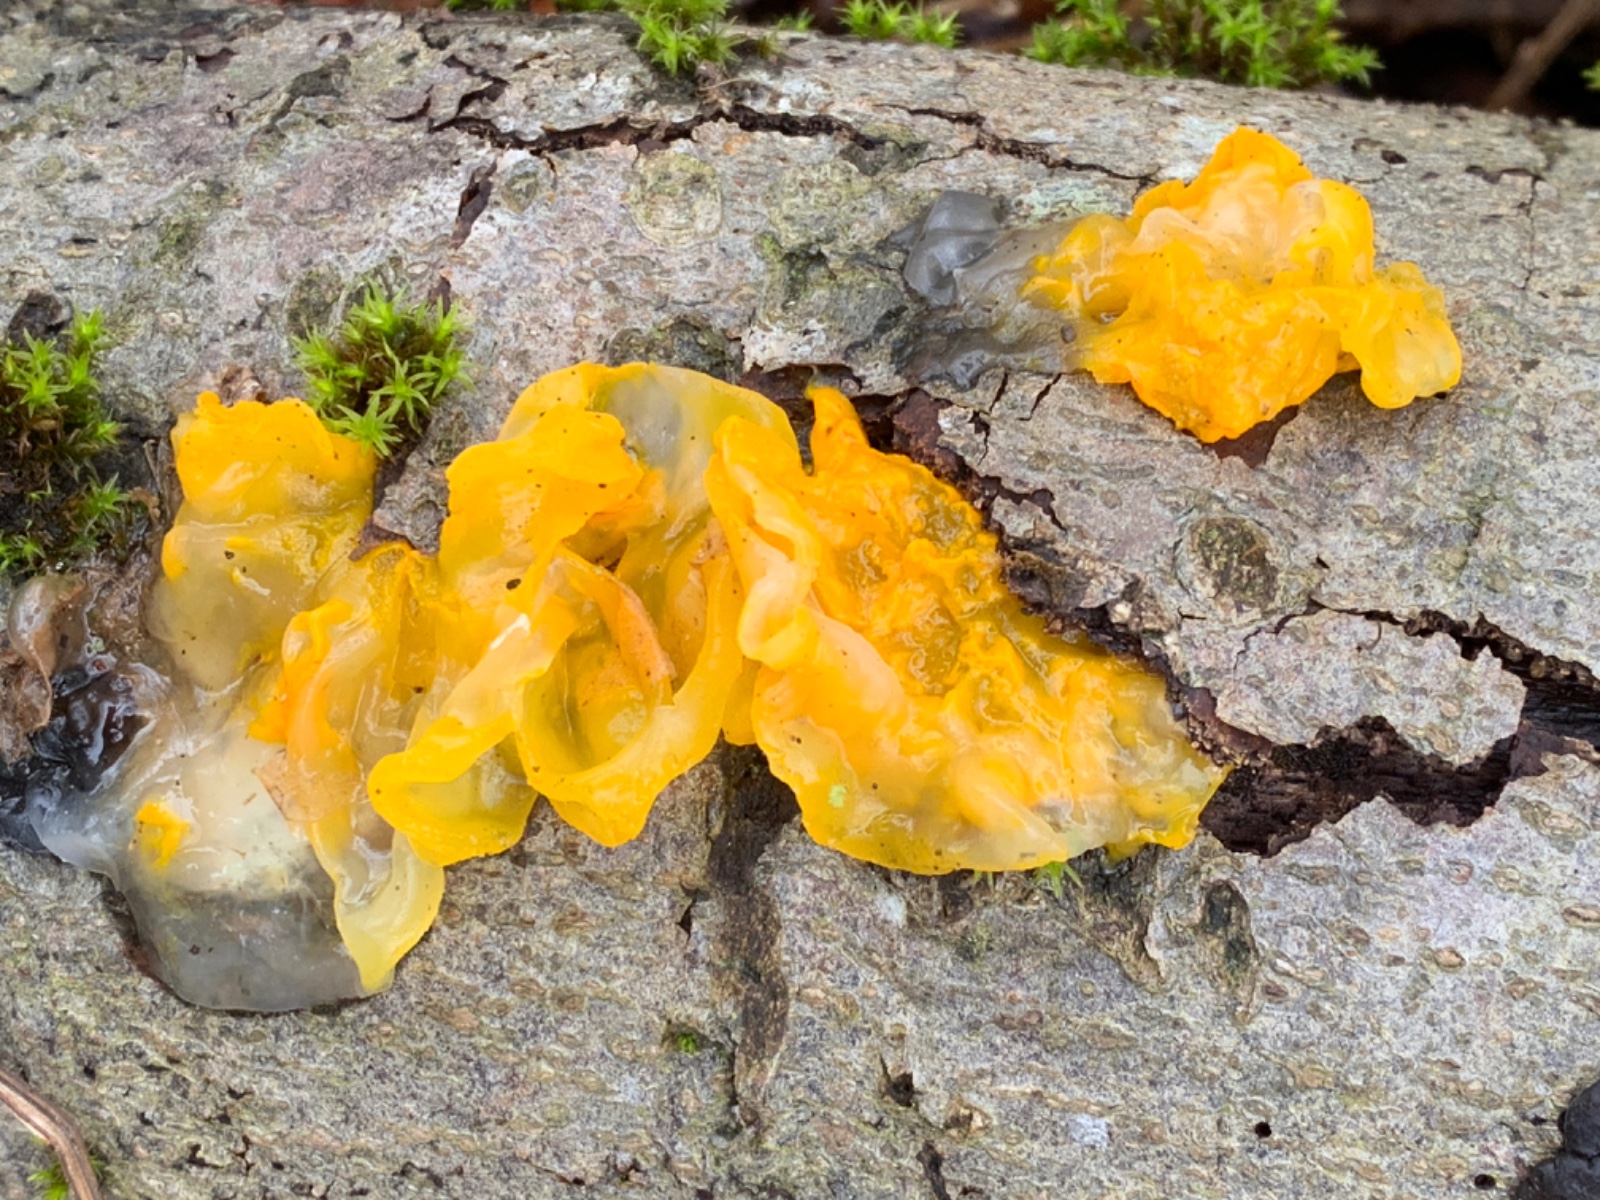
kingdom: Fungi
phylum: Basidiomycota
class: Tremellomycetes
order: Tremellales
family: Tremellaceae
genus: Tremella
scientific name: Tremella mesenterica
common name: gul bævresvamp
